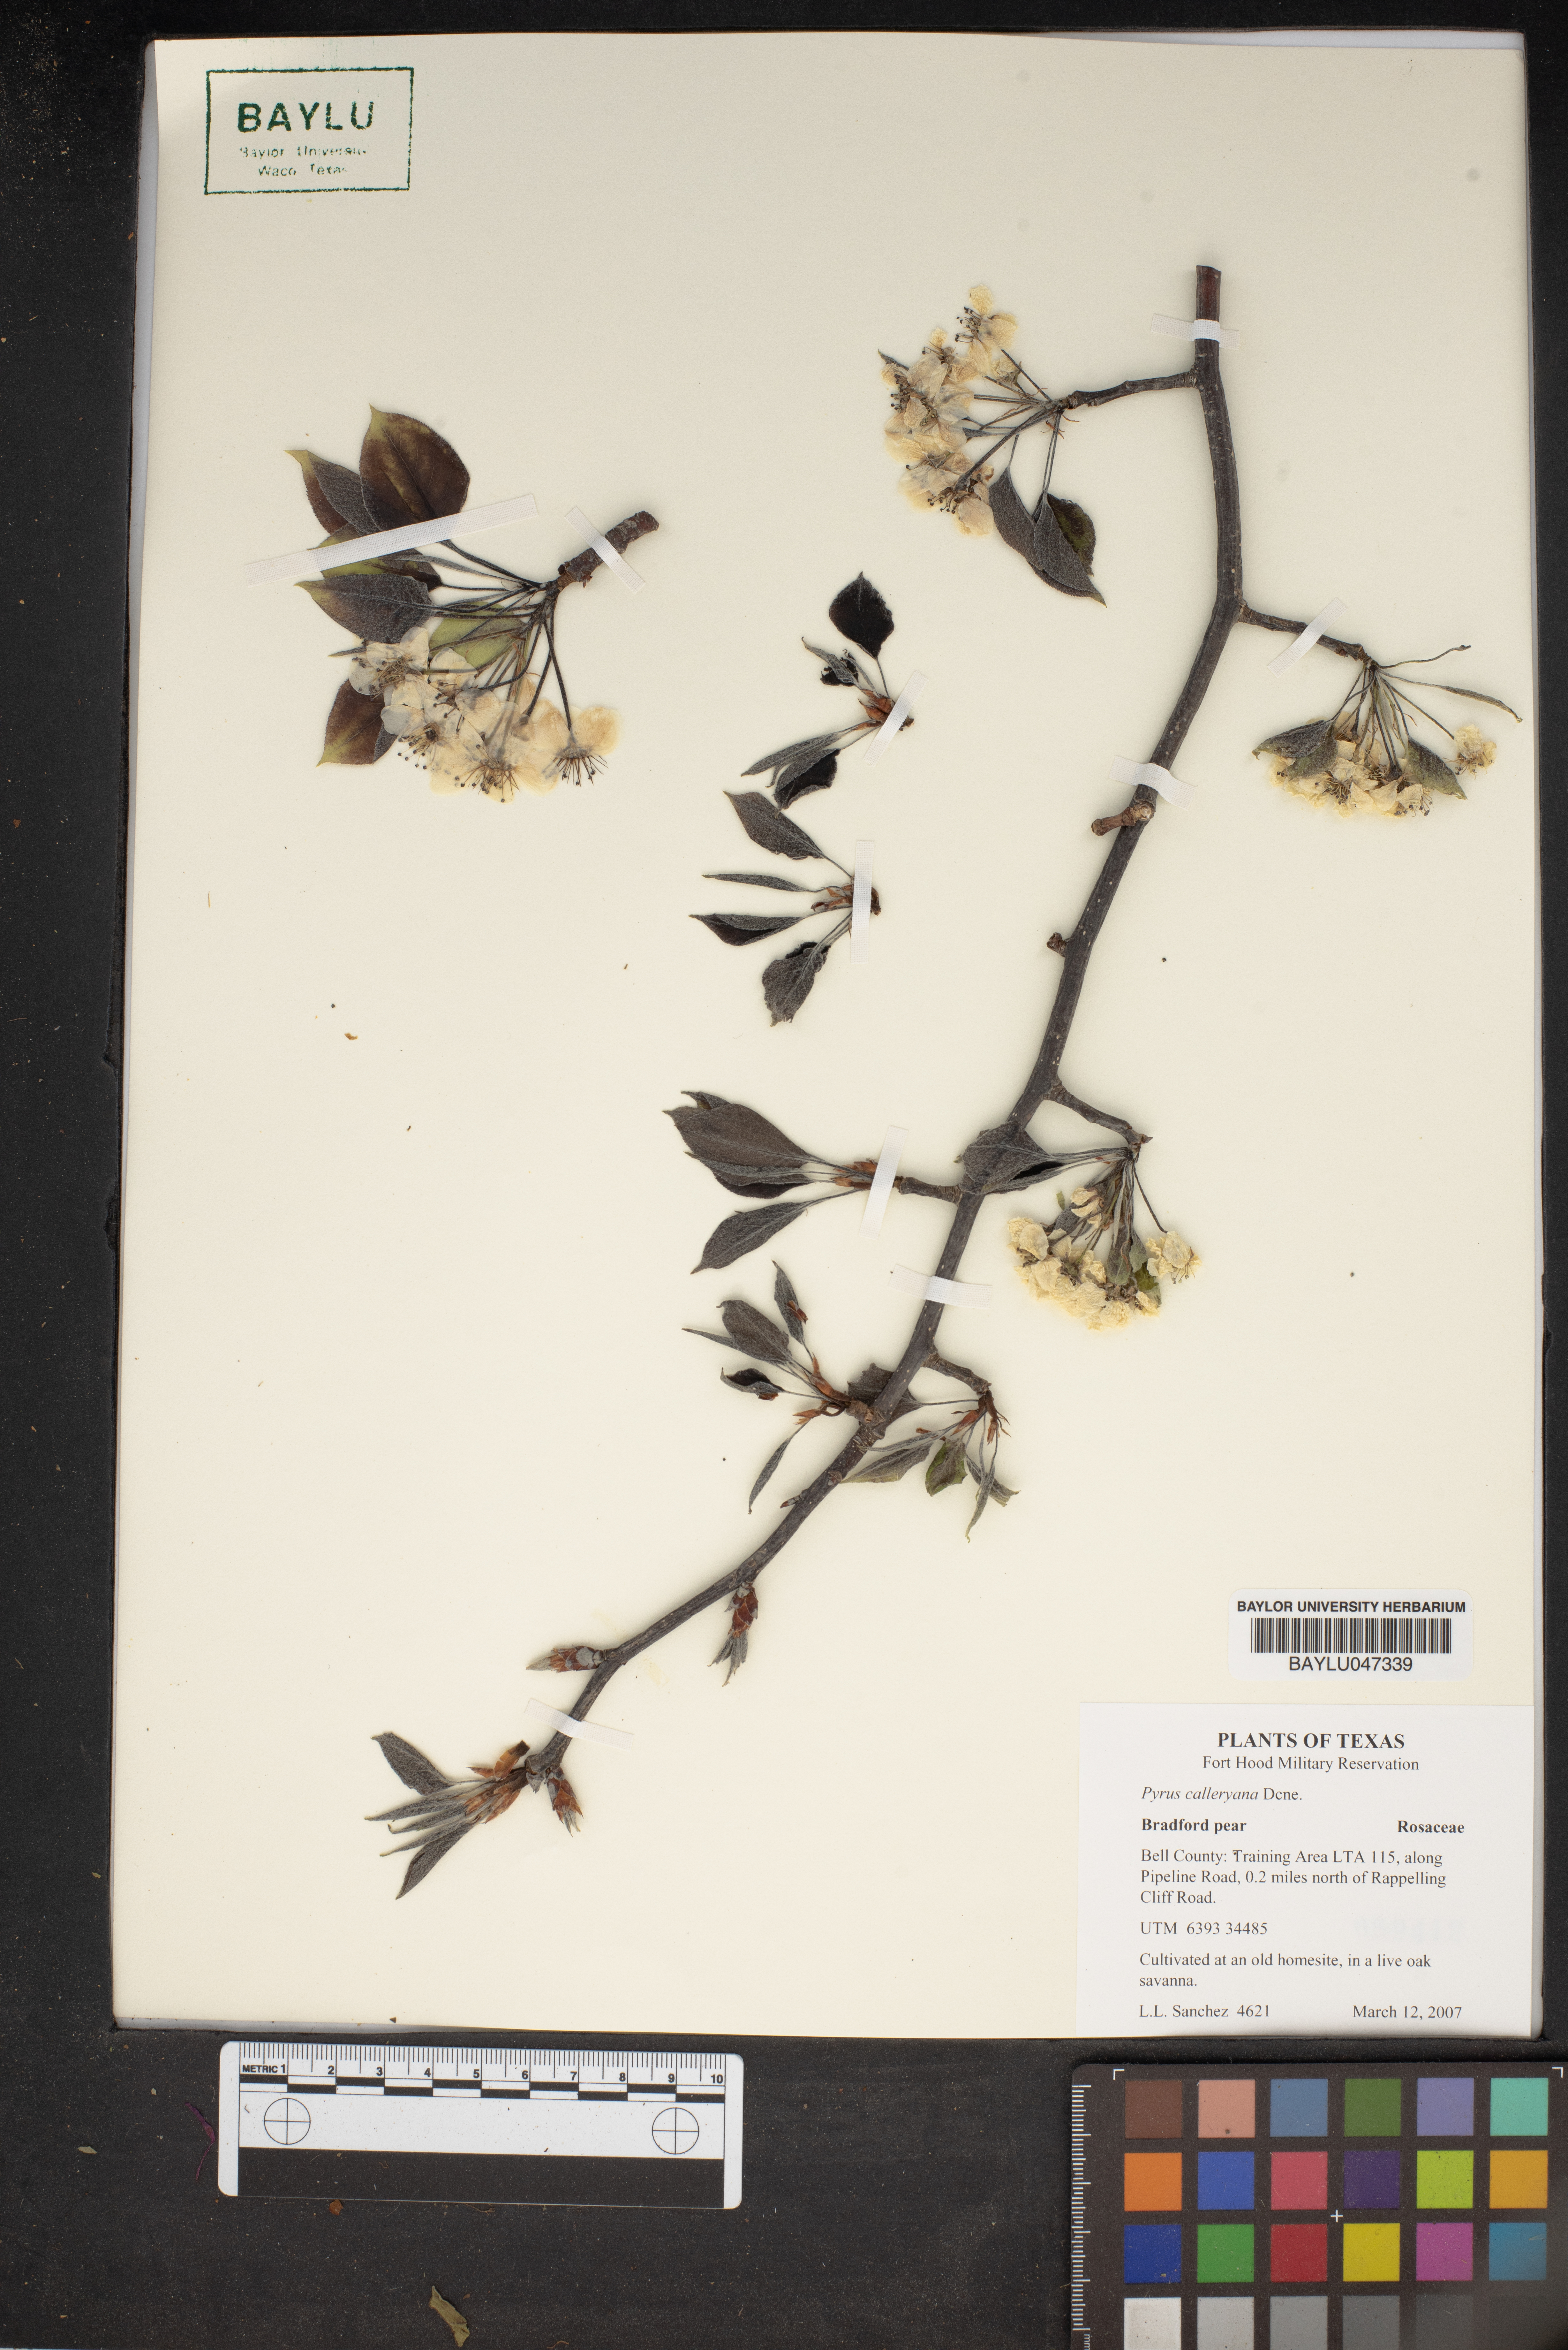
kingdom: Plantae
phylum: Tracheophyta
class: Magnoliopsida
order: Rosales
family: Rosaceae
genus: Pyrus
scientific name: Pyrus calleryana
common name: Callery pear
